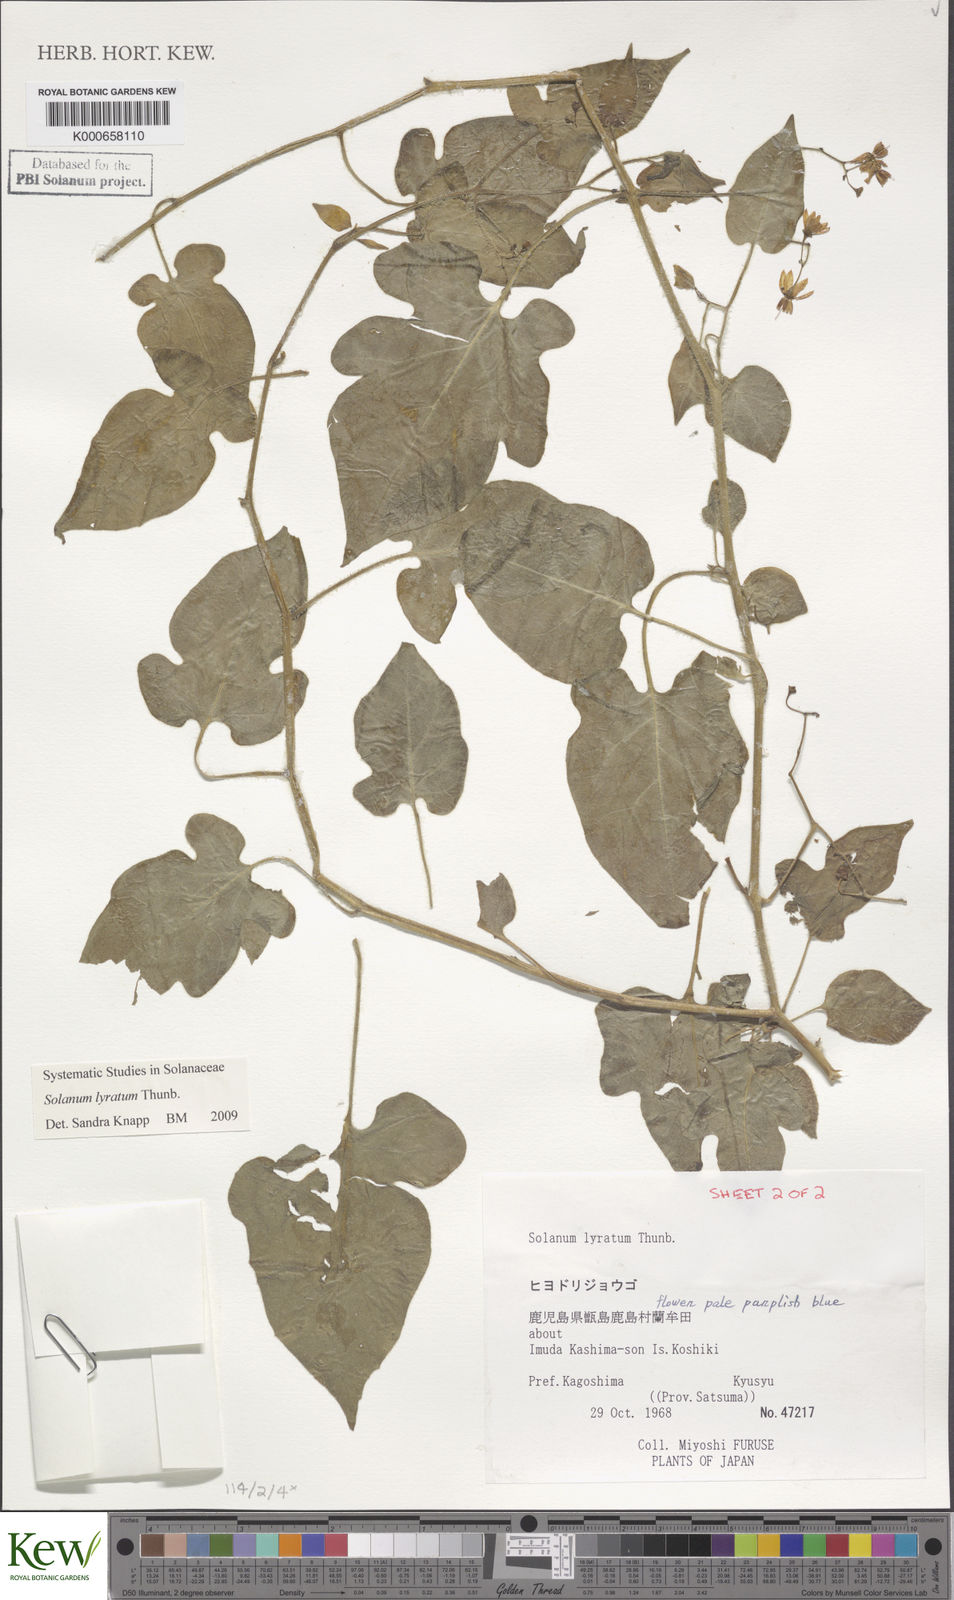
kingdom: Plantae
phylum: Tracheophyta
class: Magnoliopsida
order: Solanales
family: Solanaceae
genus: Solanum
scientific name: Solanum lyratum
